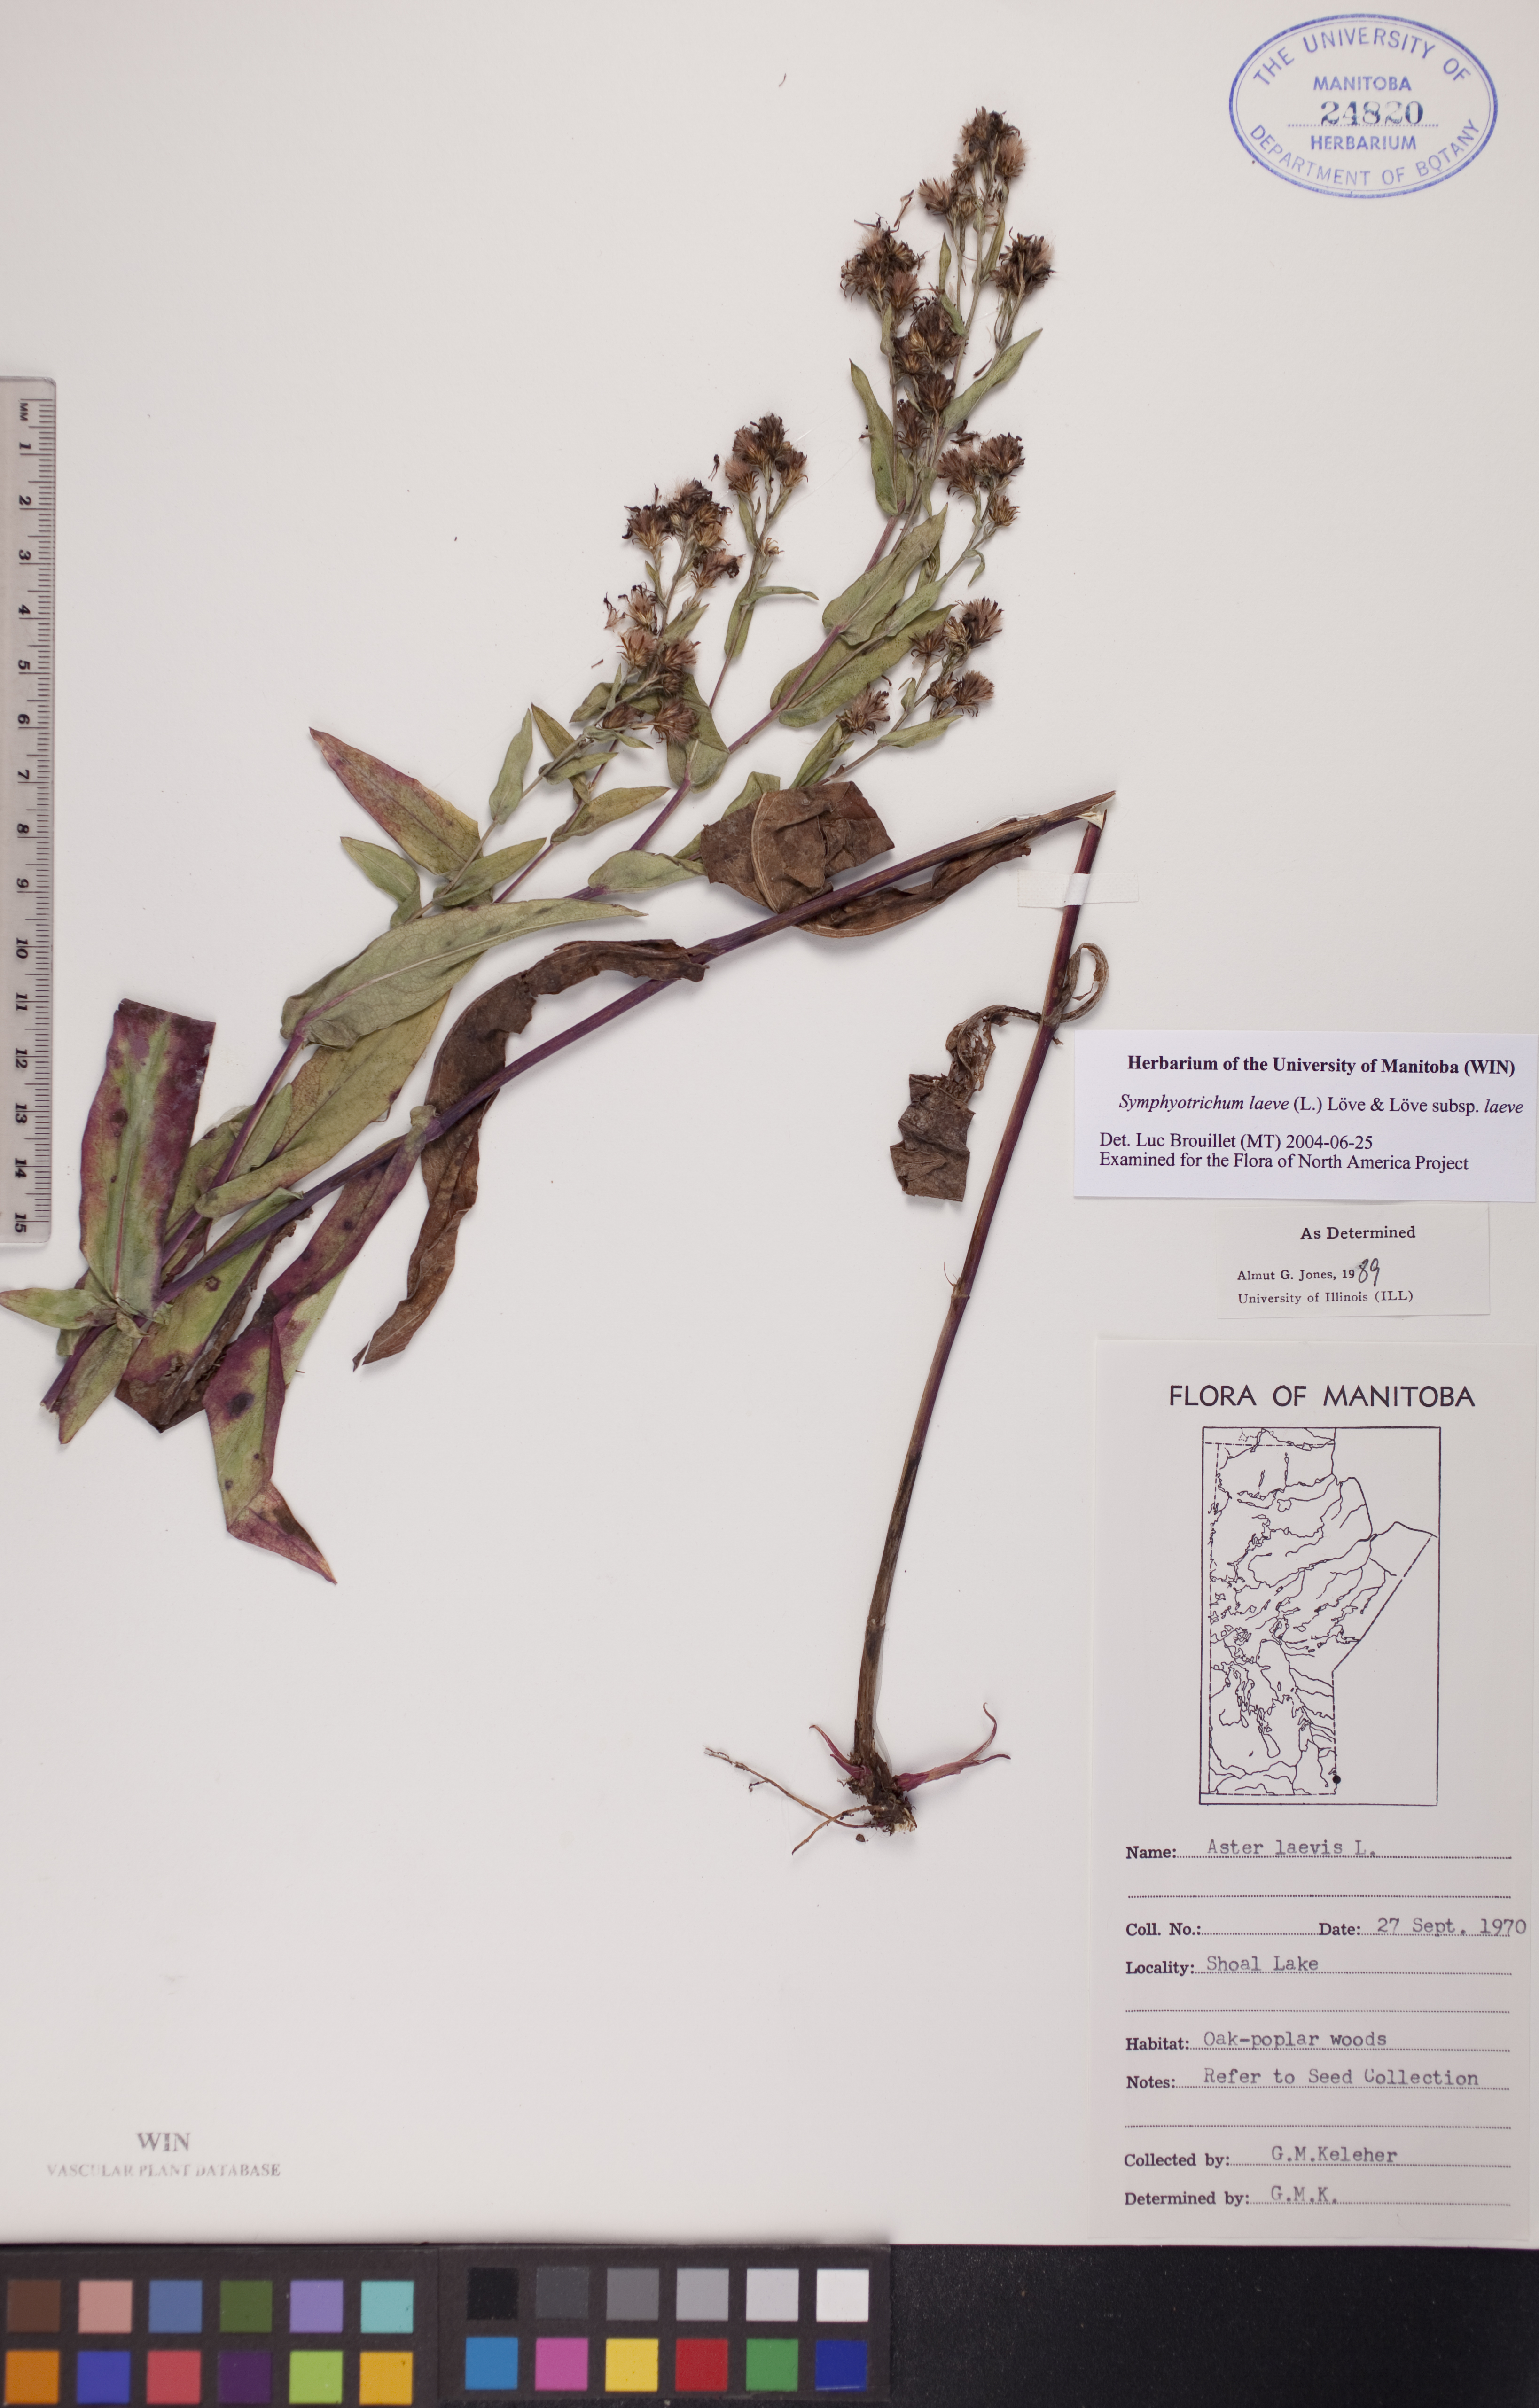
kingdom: Plantae
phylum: Tracheophyta
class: Magnoliopsida
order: Asterales
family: Asteraceae
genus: Symphyotrichum
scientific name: Symphyotrichum laeve
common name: Glaucous aster
